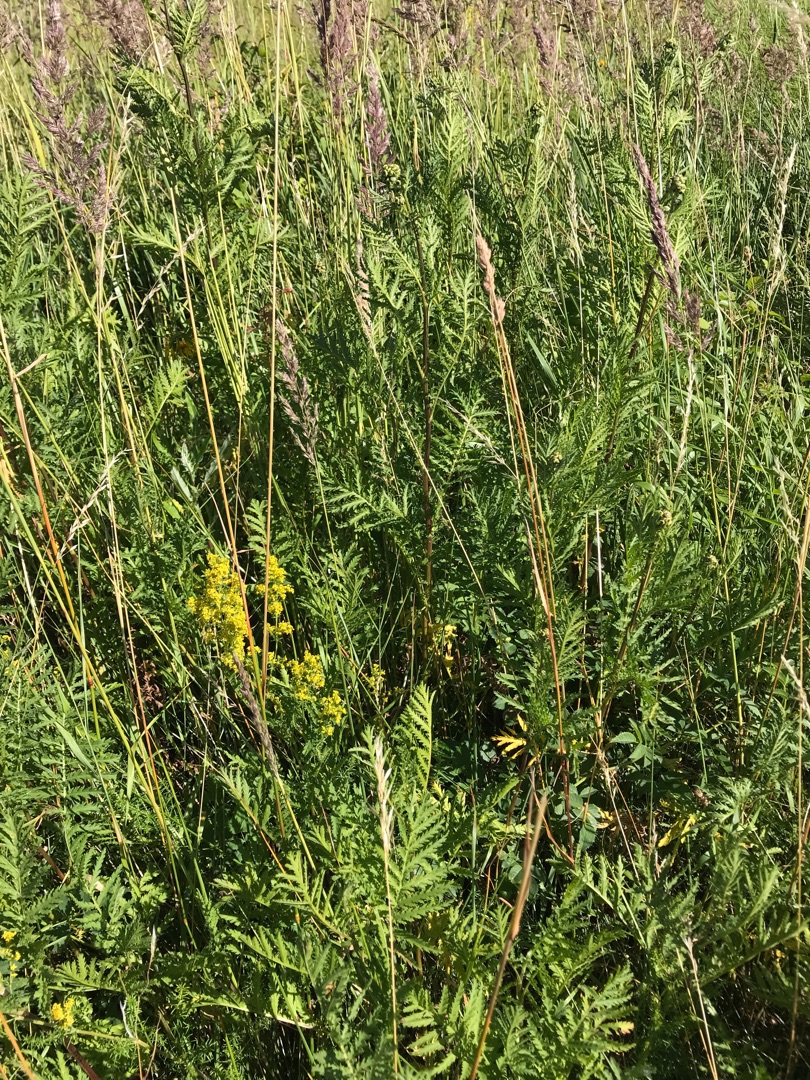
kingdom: Plantae
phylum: Tracheophyta
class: Magnoliopsida
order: Asterales
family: Asteraceae
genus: Tanacetum
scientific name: Tanacetum vulgare
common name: Rejnfan
